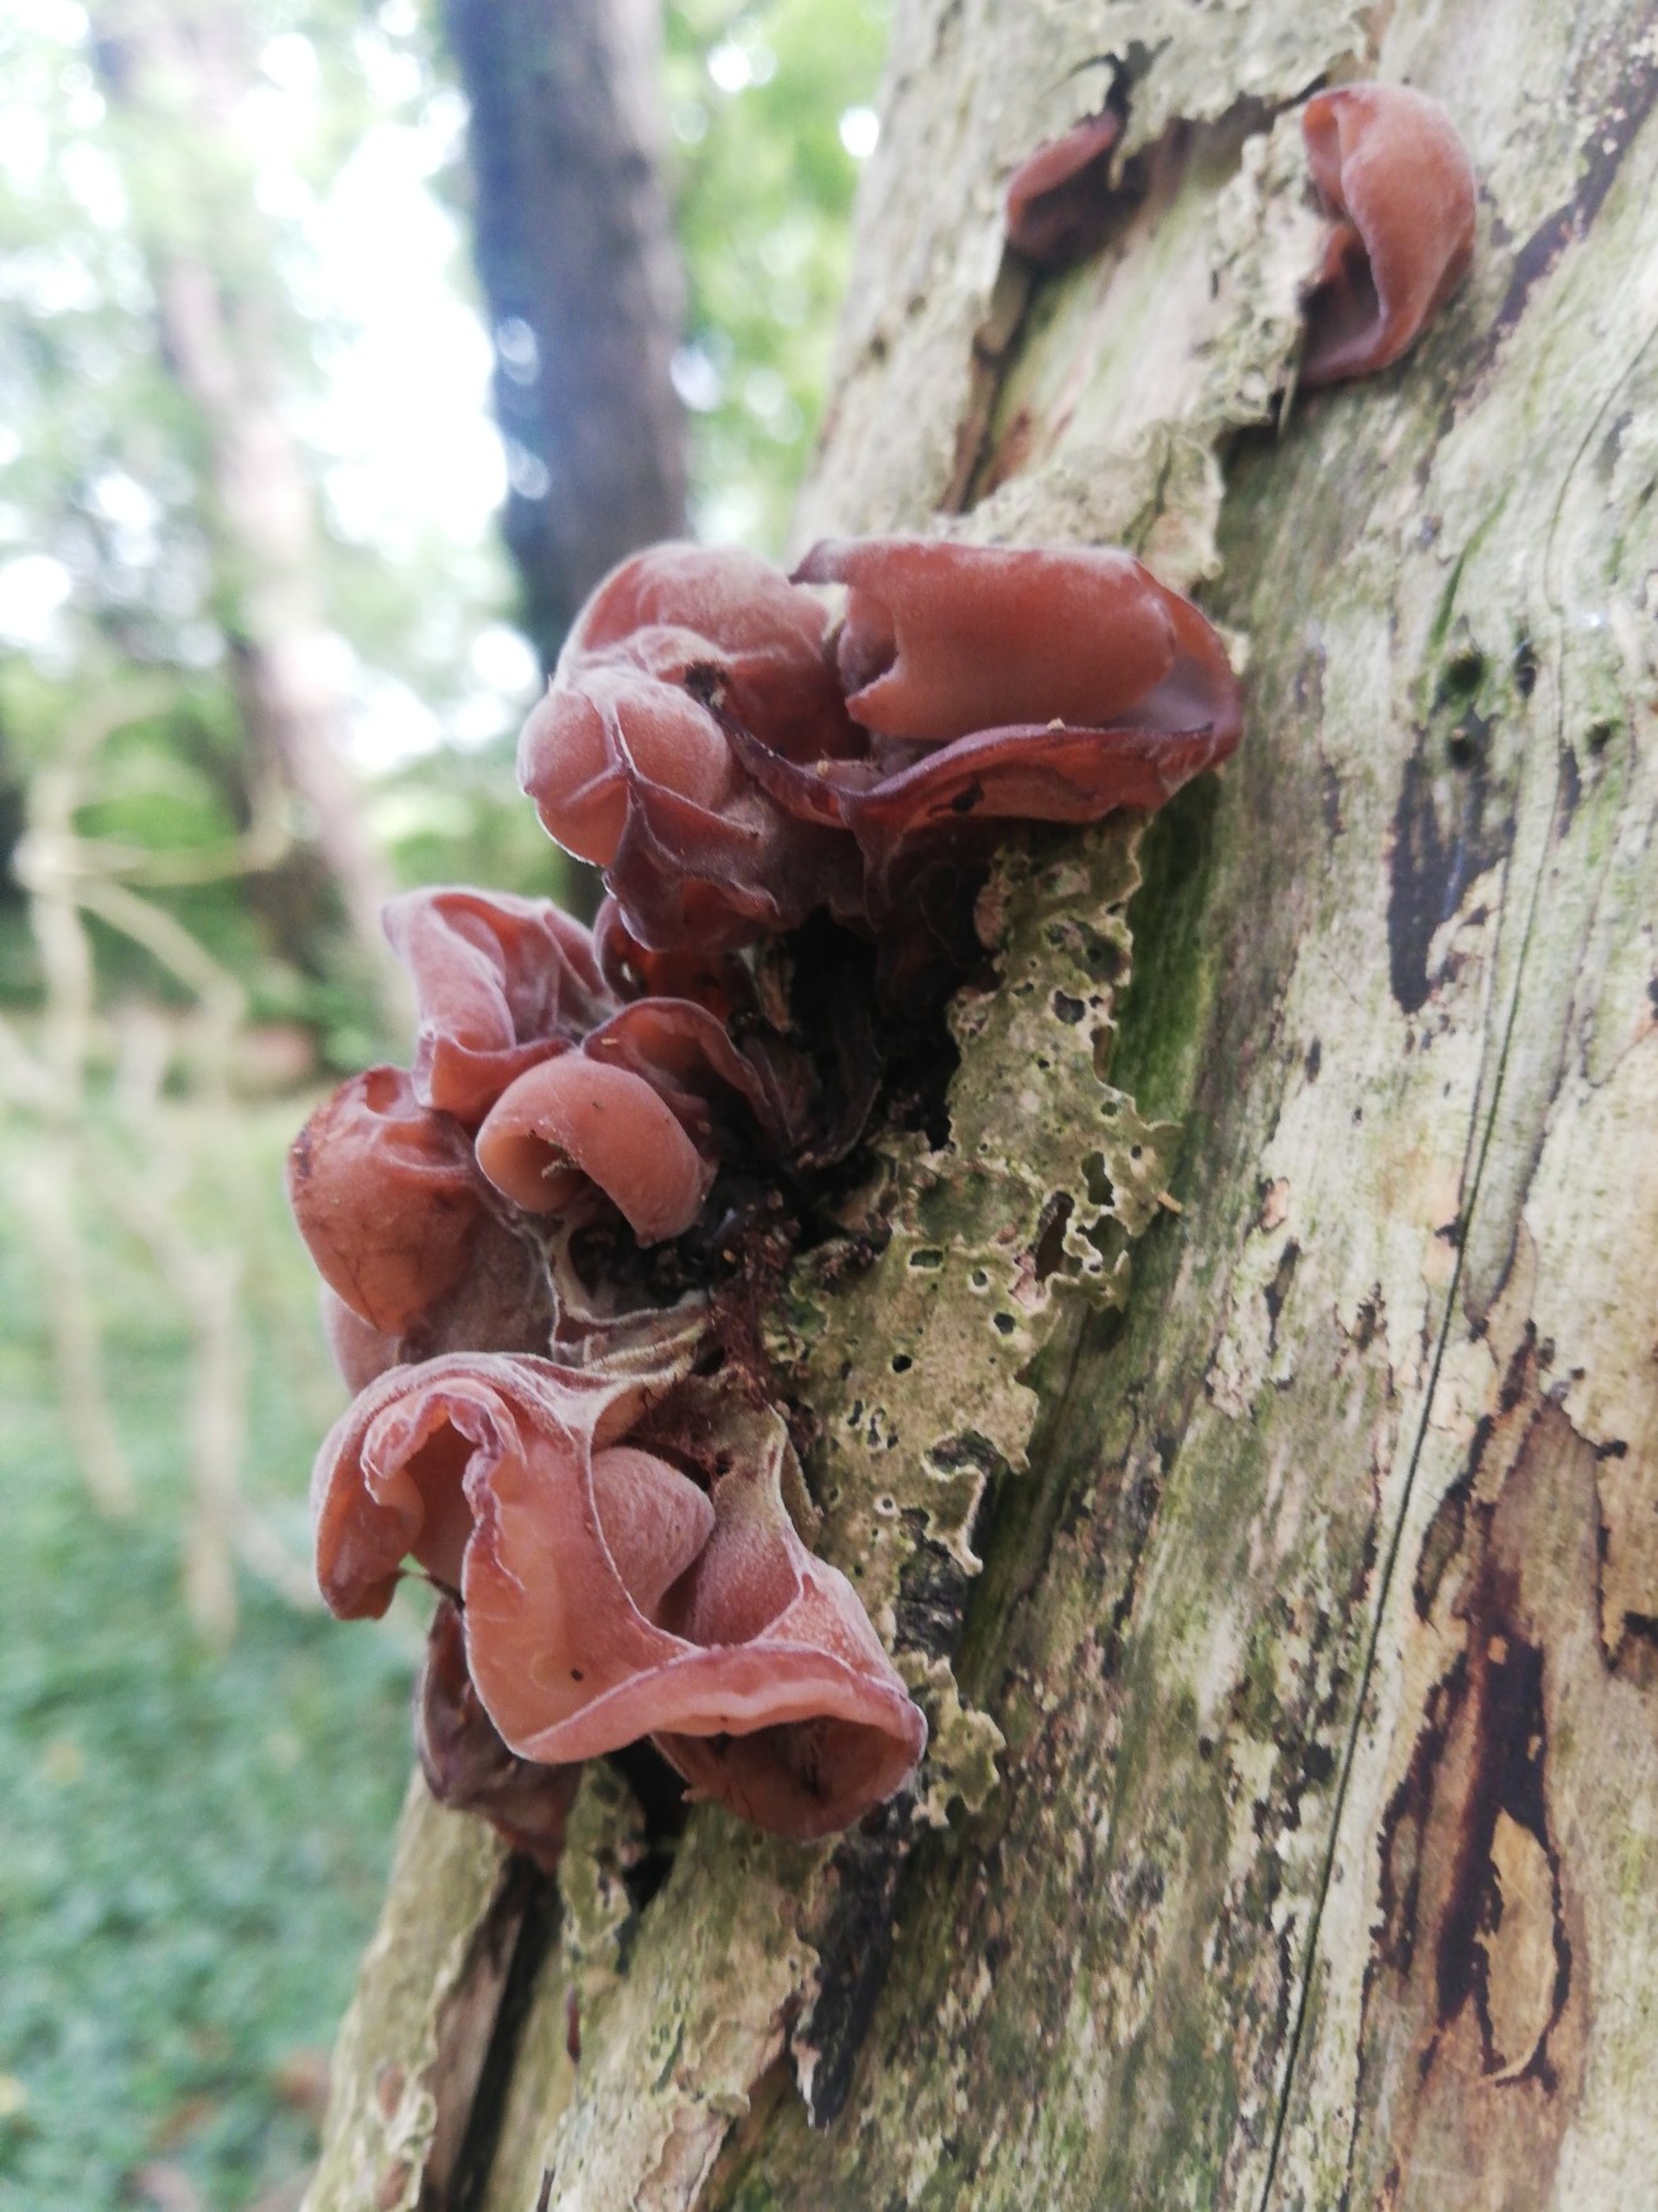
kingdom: Fungi
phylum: Basidiomycota
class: Agaricomycetes
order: Auriculariales
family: Auriculariaceae
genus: Auricularia
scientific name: Auricularia auricula-judae
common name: Almindelig judasøre
